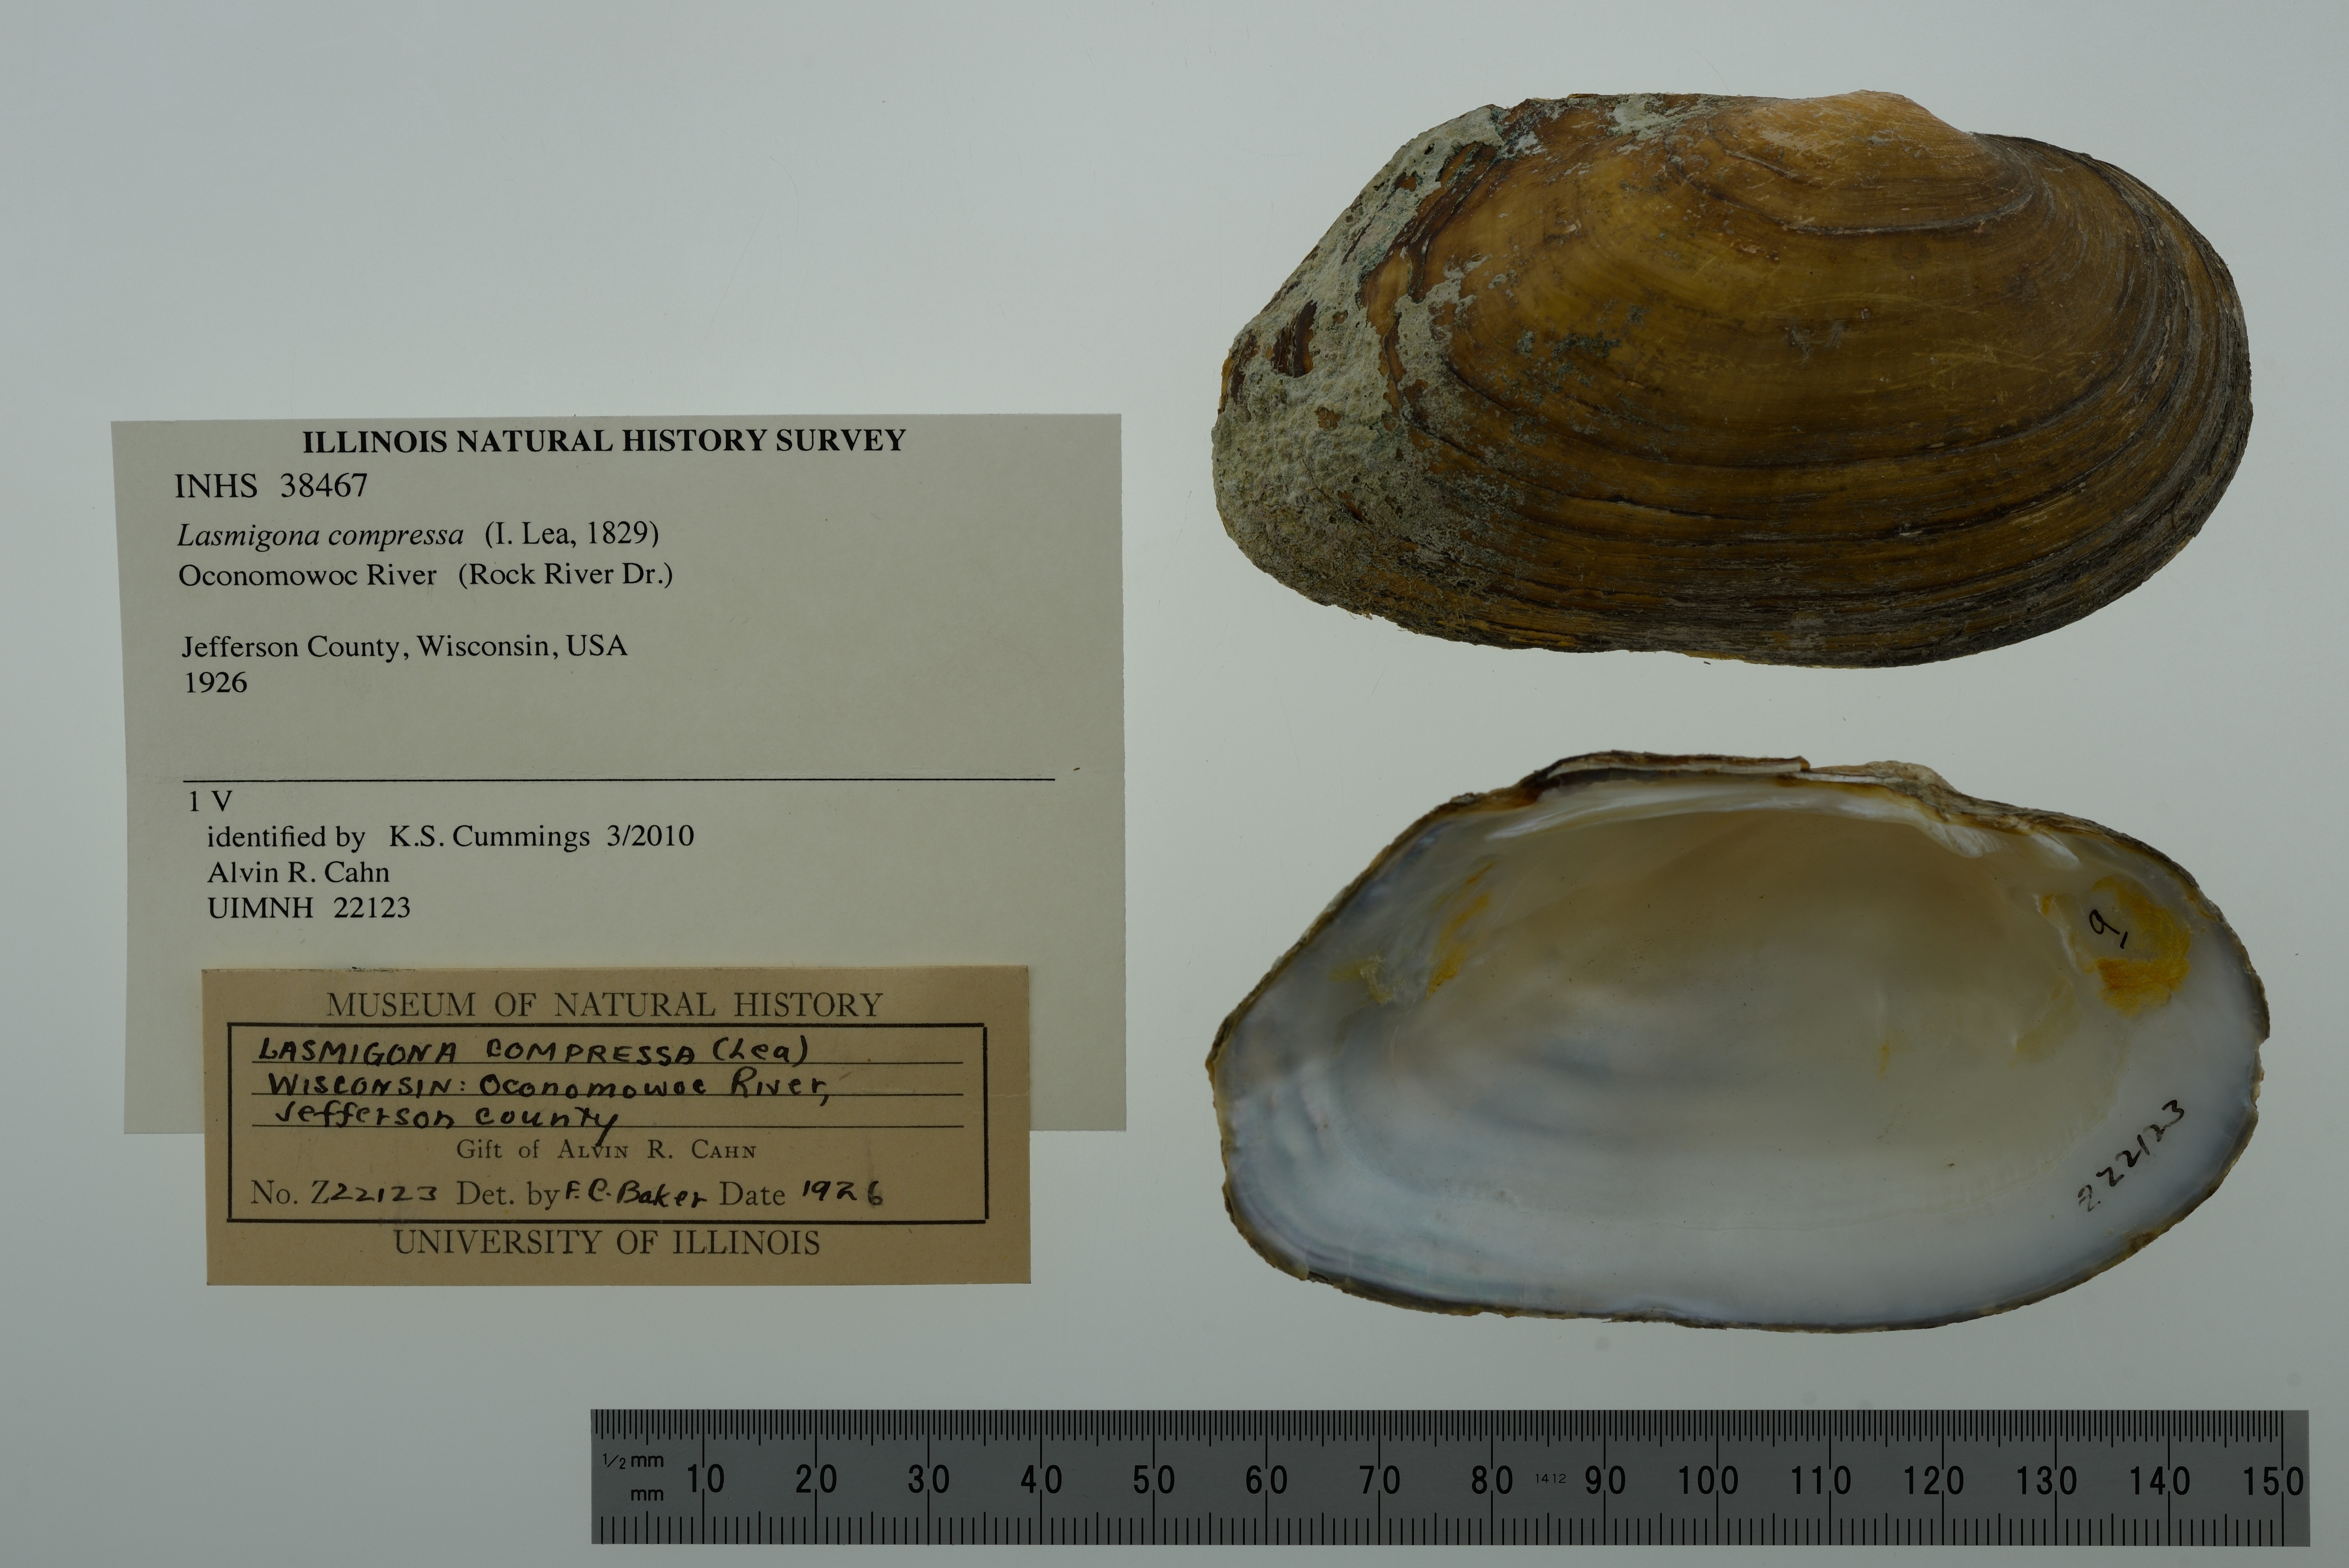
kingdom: Animalia
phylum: Mollusca
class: Bivalvia
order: Unionida
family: Unionidae
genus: Lasmigona
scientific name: Lasmigona compressa
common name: Creek heelsplitter
